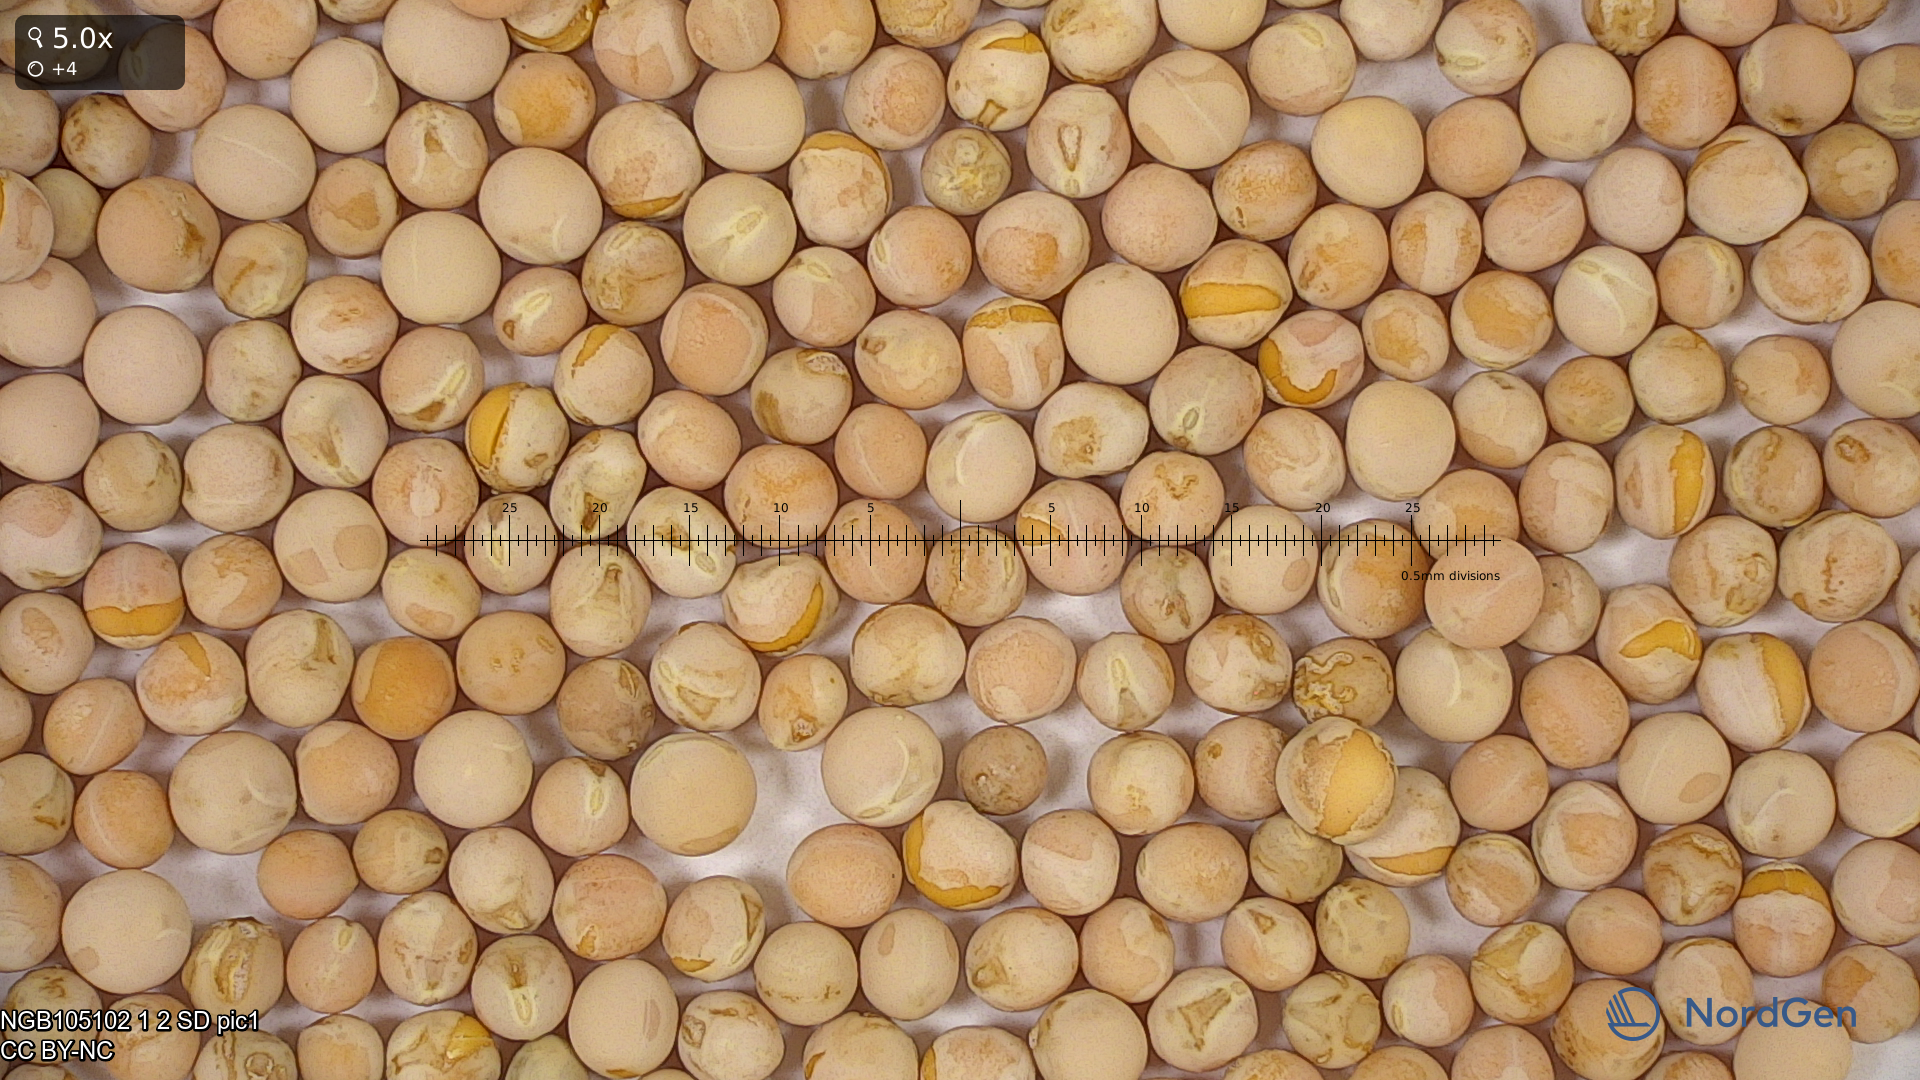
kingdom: Plantae
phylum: Tracheophyta
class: Magnoliopsida
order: Fabales
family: Fabaceae
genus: Lathyrus
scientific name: Lathyrus oleraceus
